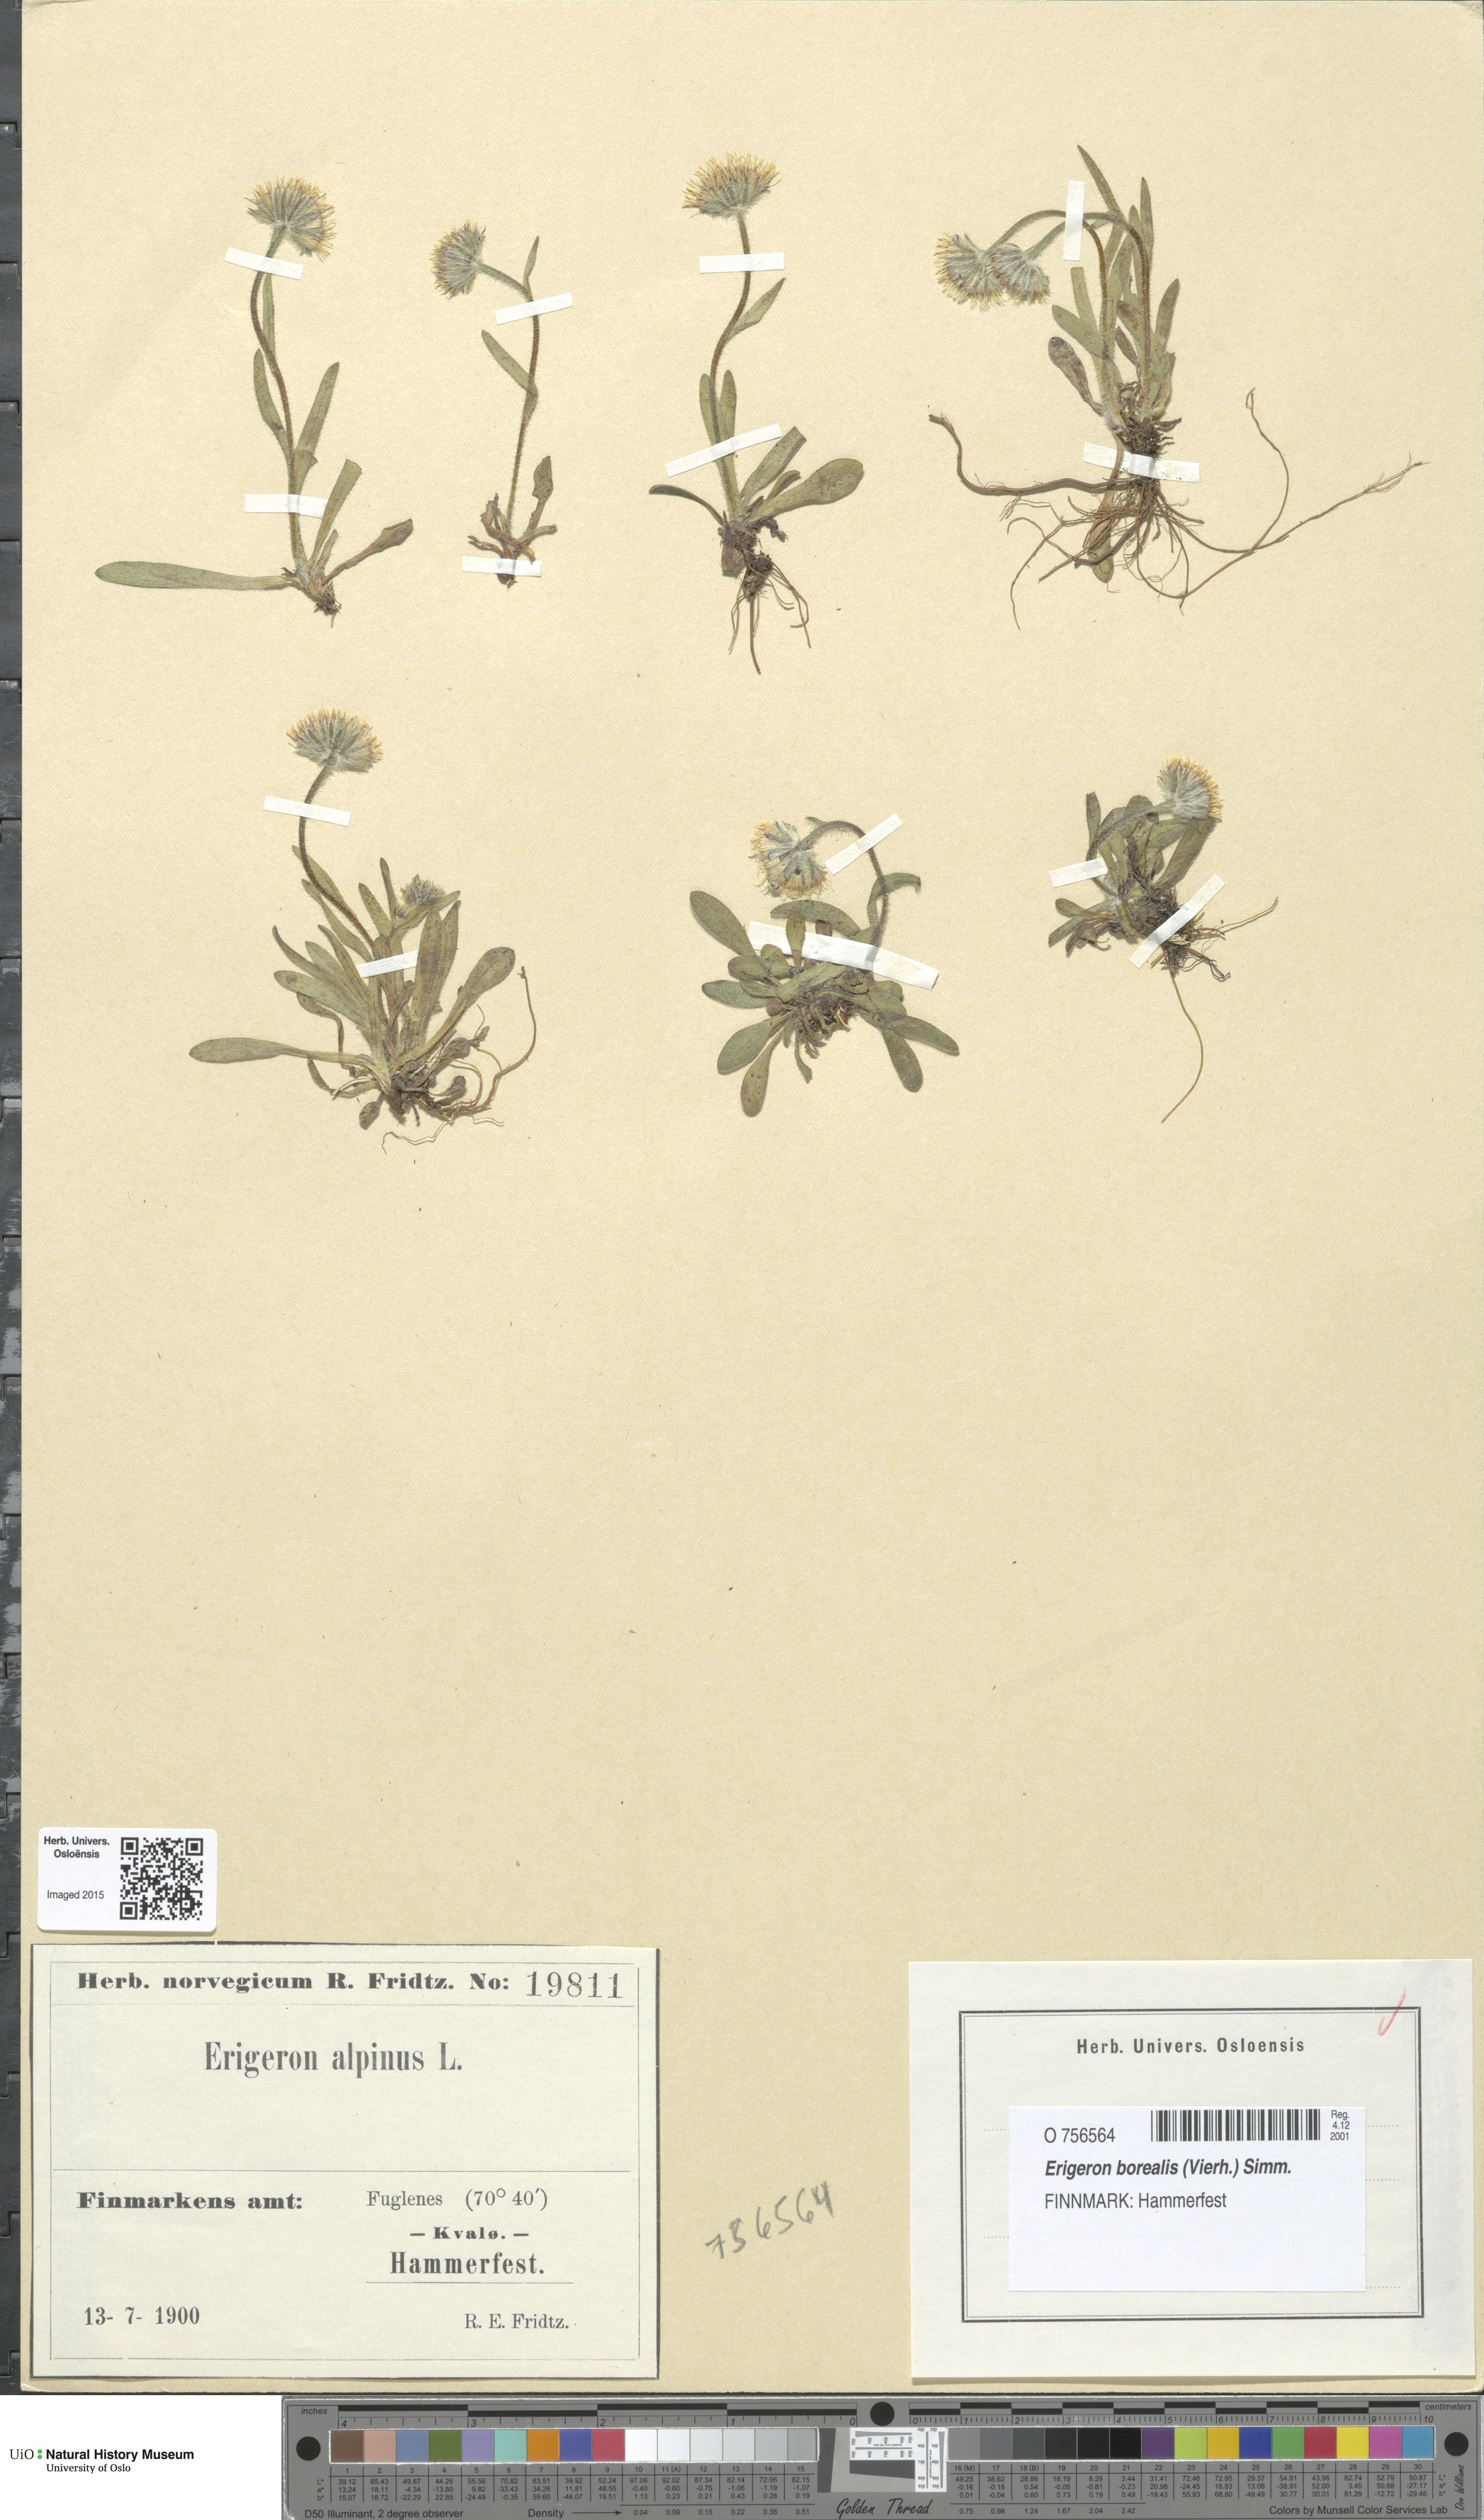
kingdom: Plantae
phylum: Tracheophyta
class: Magnoliopsida
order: Asterales
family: Asteraceae
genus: Erigeron
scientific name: Erigeron borealis
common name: Alpine fleabane
